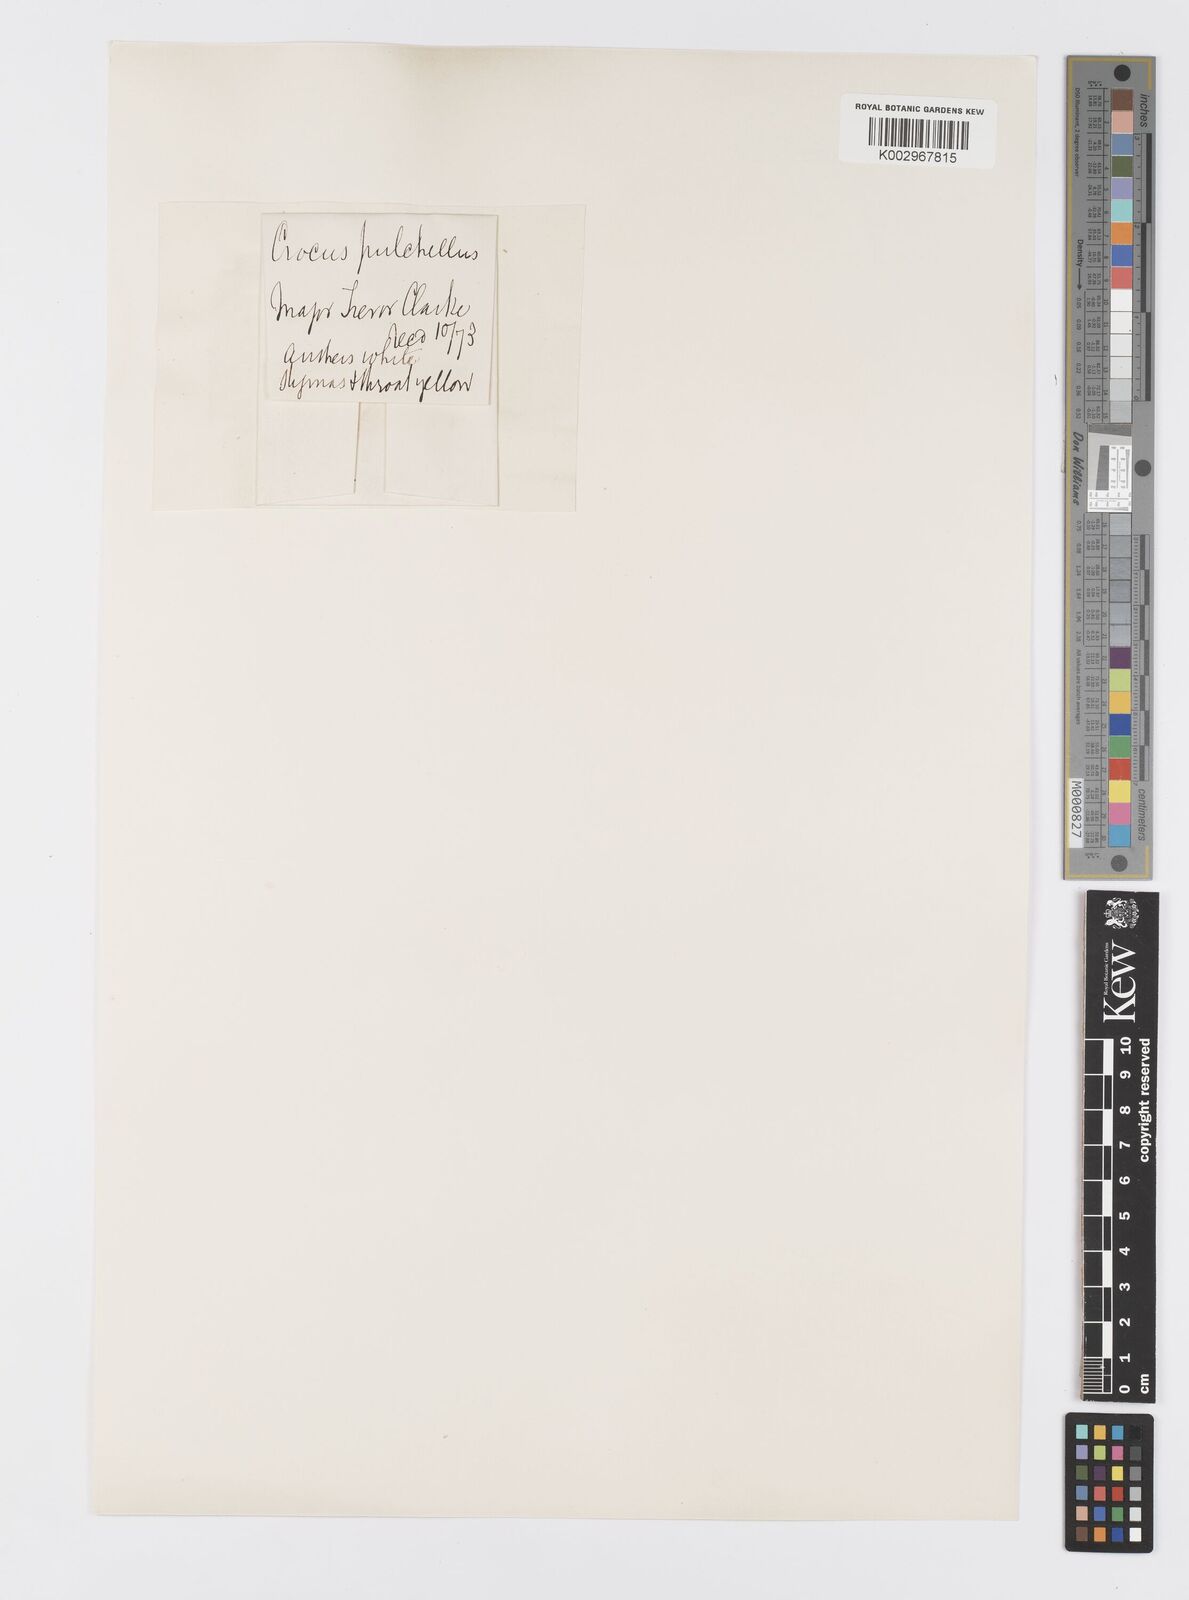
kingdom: Plantae
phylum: Tracheophyta
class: Liliopsida
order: Asparagales
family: Iridaceae
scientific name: Iridaceae
